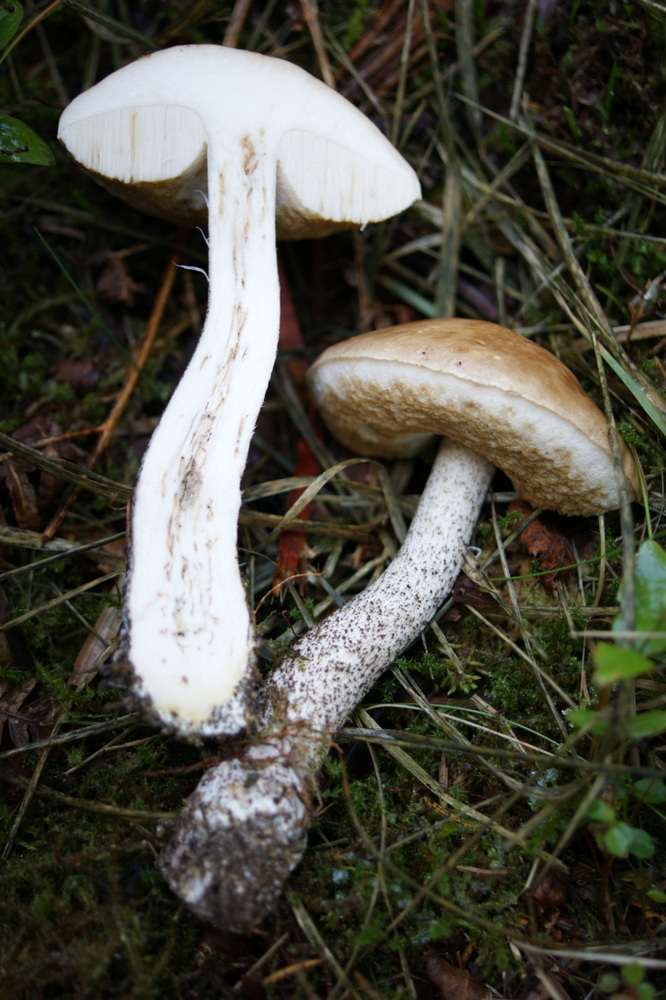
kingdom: Fungi
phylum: Basidiomycota
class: Agaricomycetes
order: Boletales
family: Boletaceae
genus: Leccinum
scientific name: Leccinum scabrum
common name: brun skælrørhat
